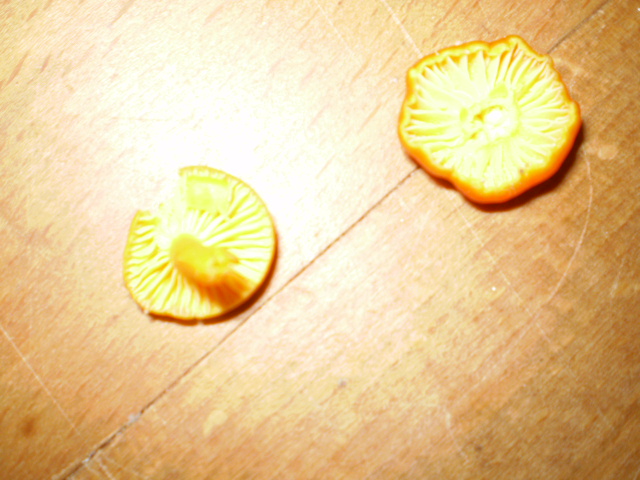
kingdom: Fungi
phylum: Basidiomycota
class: Agaricomycetes
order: Agaricales
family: Hygrophoraceae
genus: Hygrocybe
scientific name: Hygrocybe ceracea
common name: voksgul vokshat
